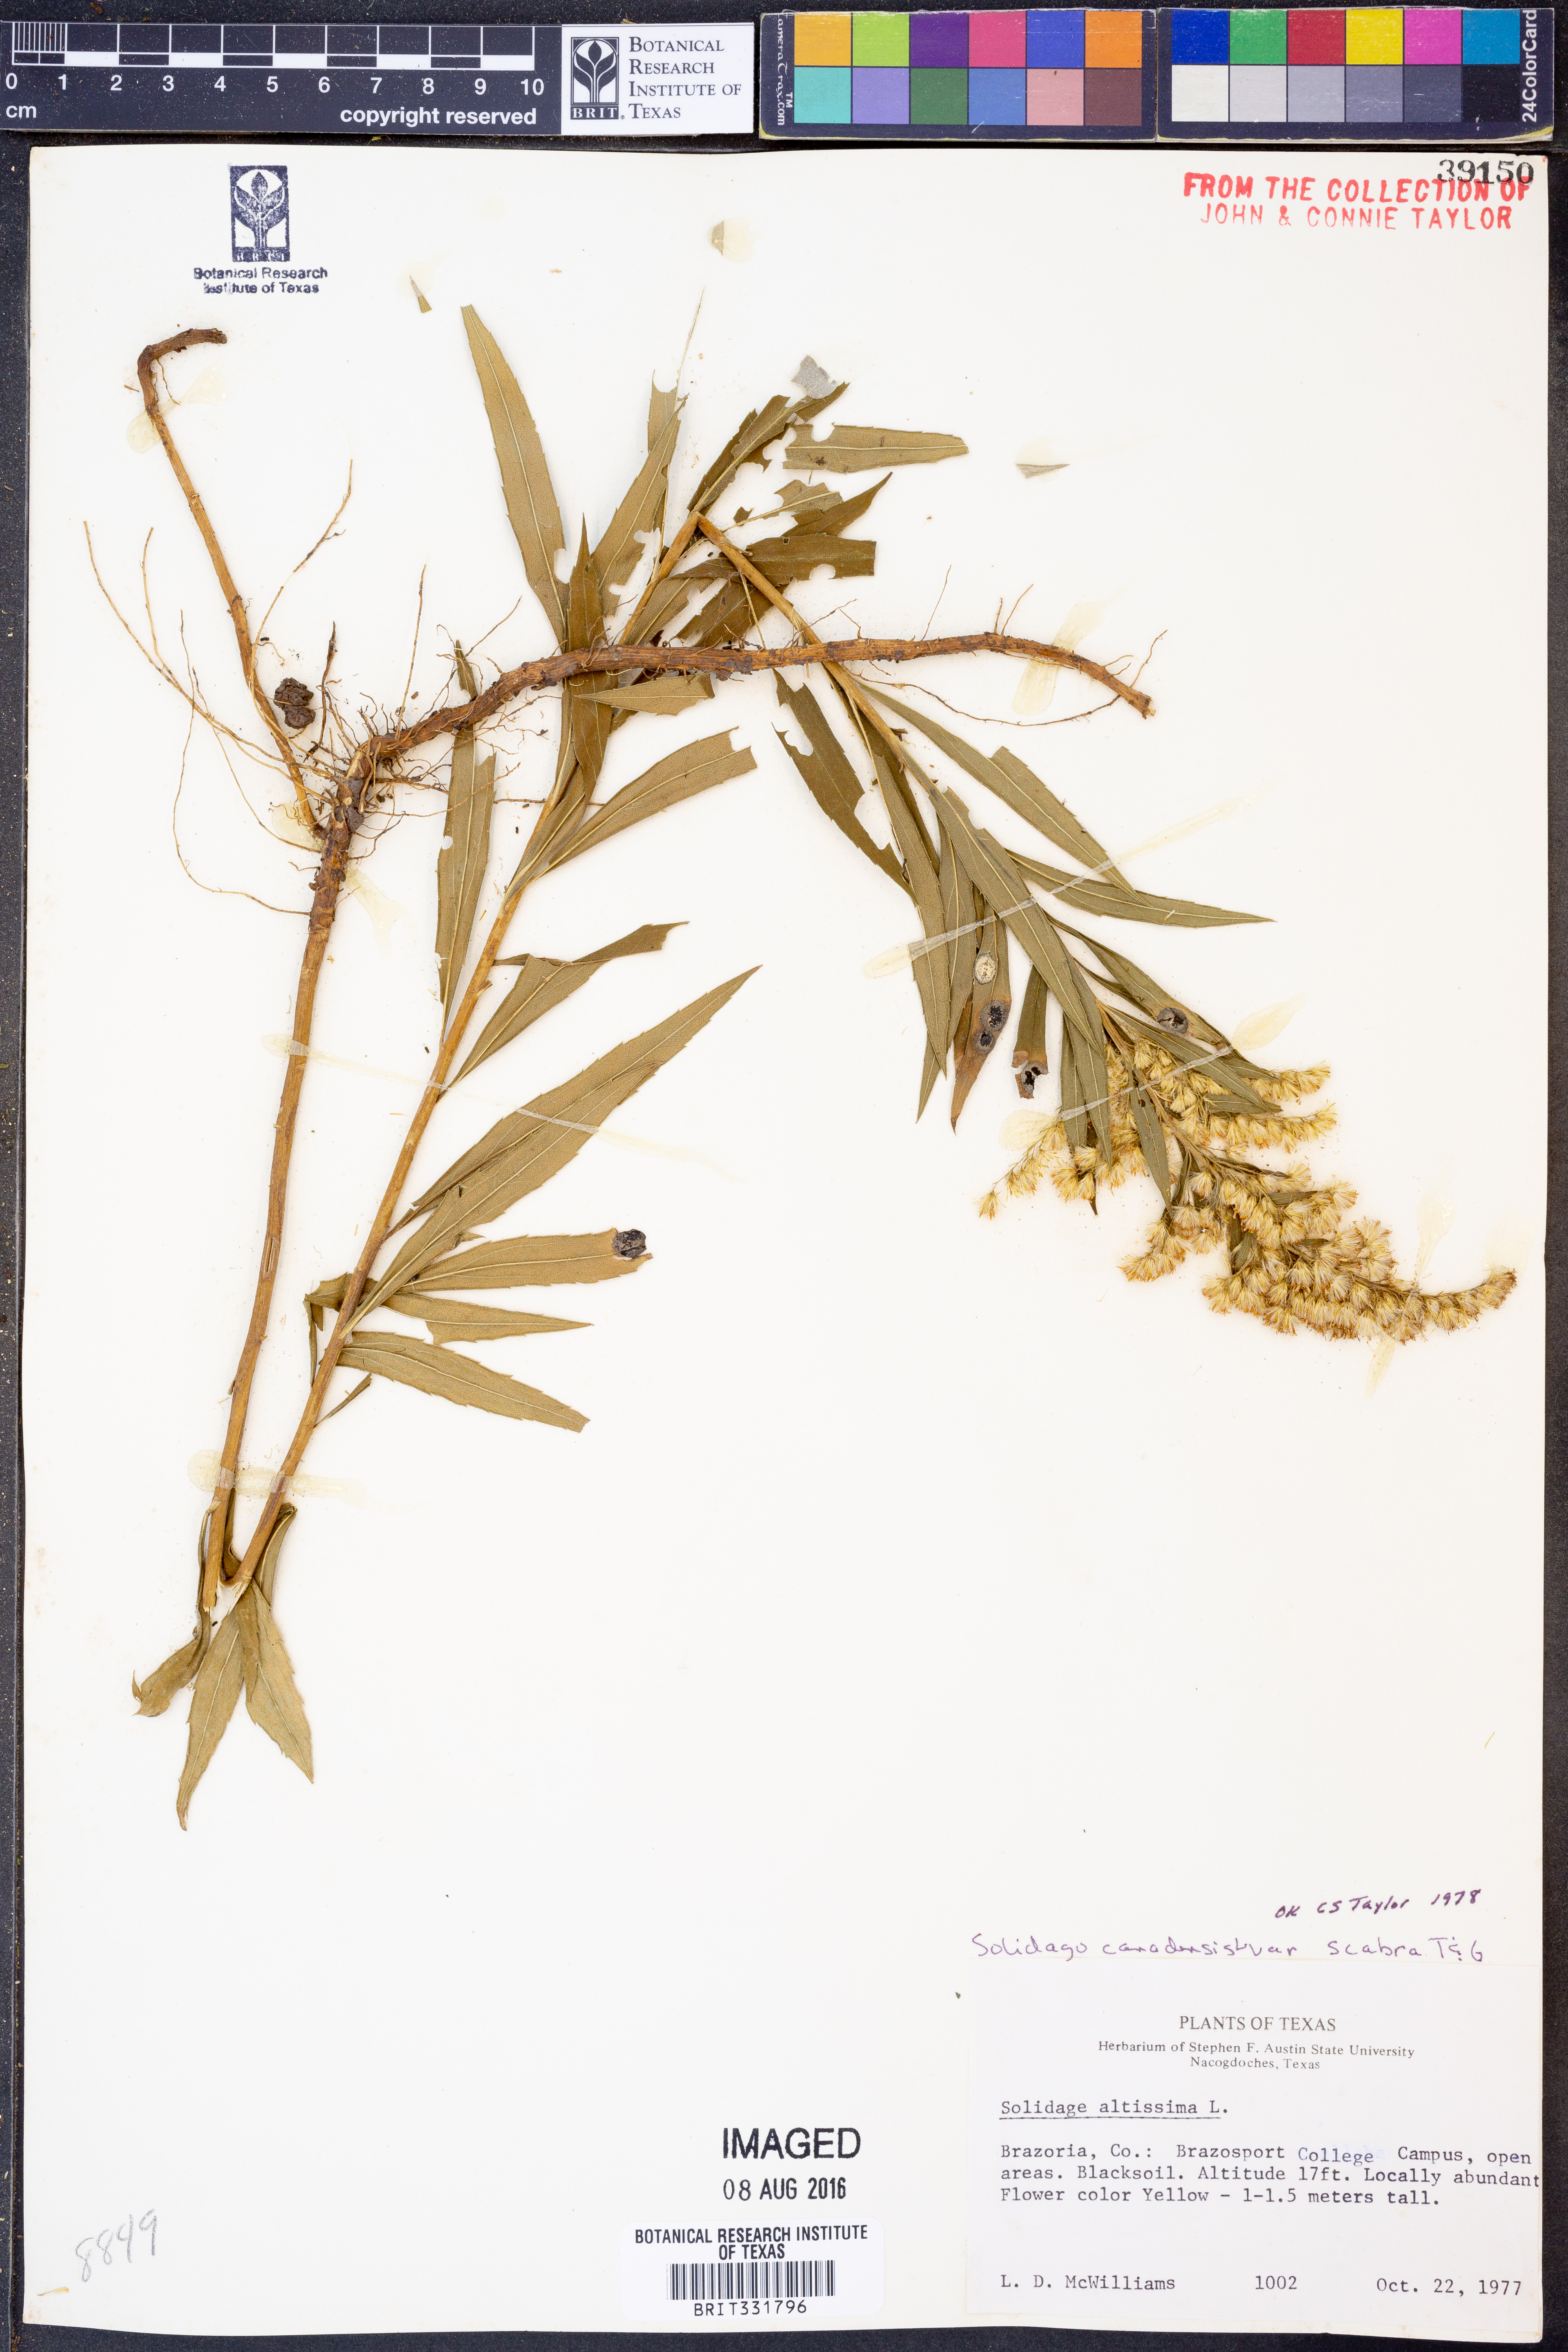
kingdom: Plantae
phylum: Tracheophyta
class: Magnoliopsida
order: Asterales
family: Asteraceae
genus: Solidago
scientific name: Solidago altissima
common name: Late goldenrod
